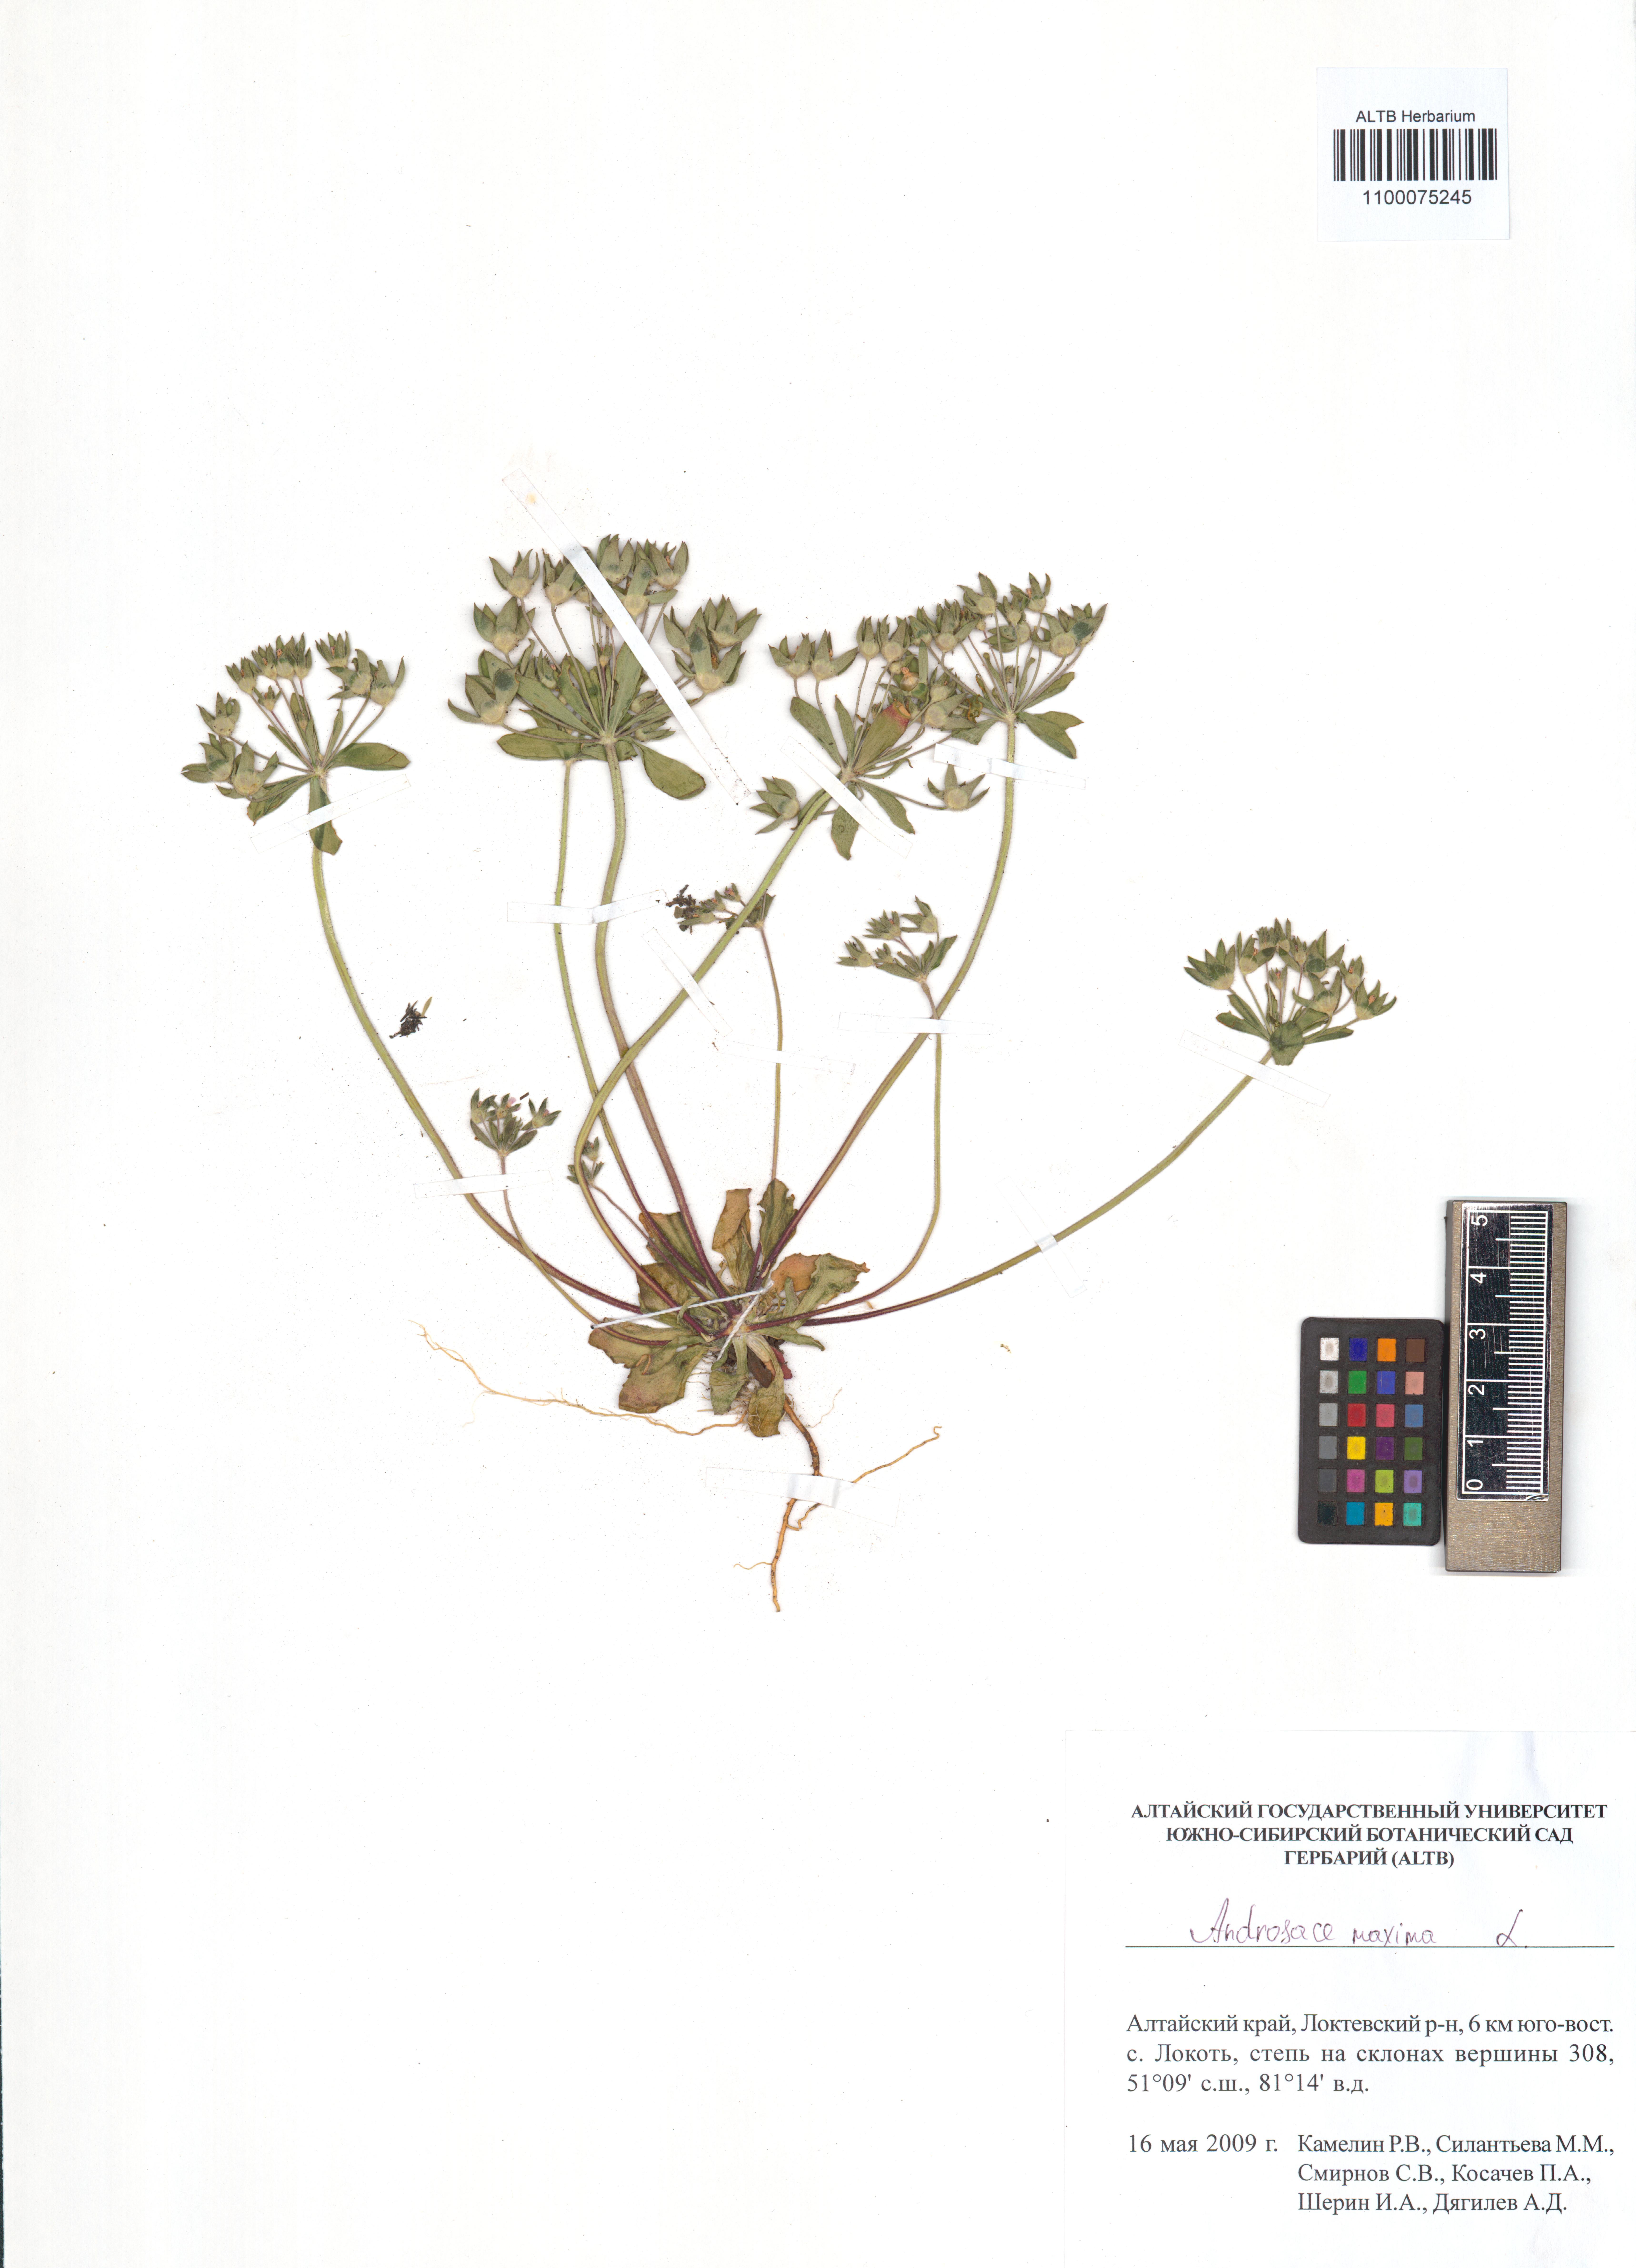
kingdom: Plantae
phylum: Tracheophyta
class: Magnoliopsida
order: Ericales
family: Primulaceae
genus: Androsace
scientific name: Androsace maxima
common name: Annual androsace
